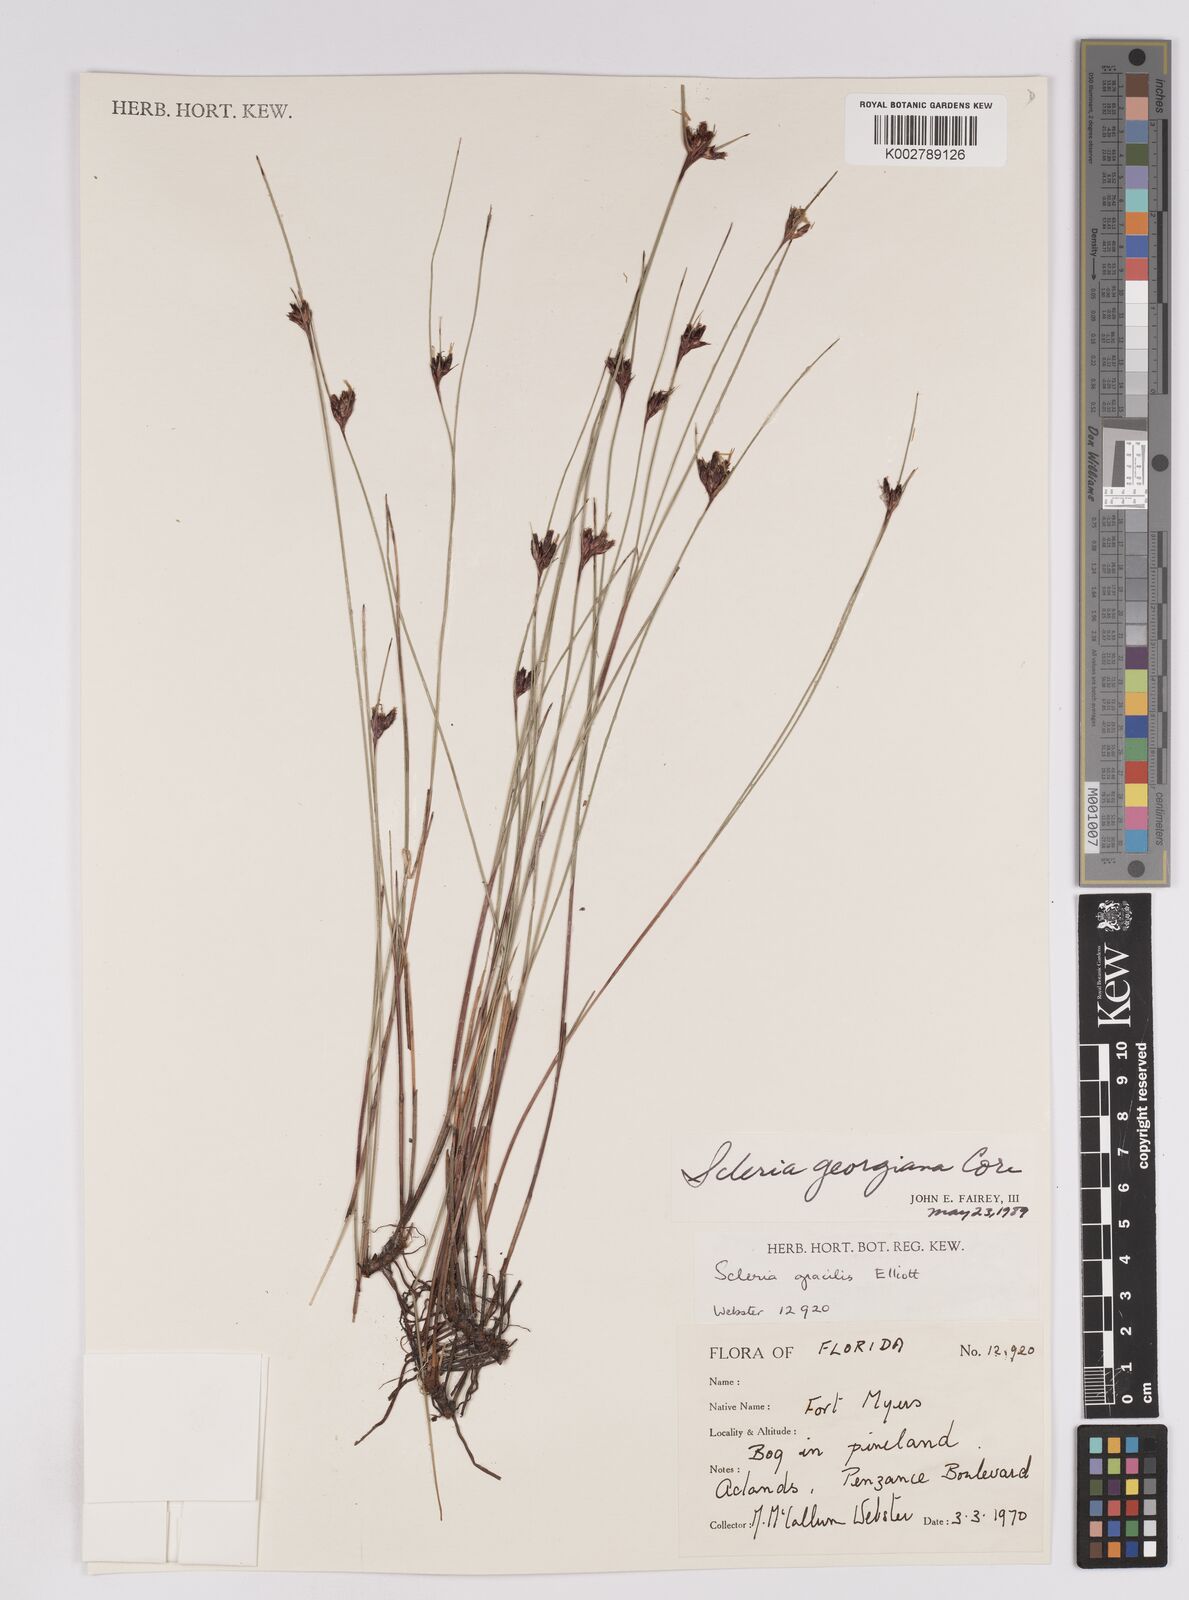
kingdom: Plantae
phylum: Tracheophyta
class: Liliopsida
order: Poales
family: Cyperaceae
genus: Scleria
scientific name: Scleria georgiana
